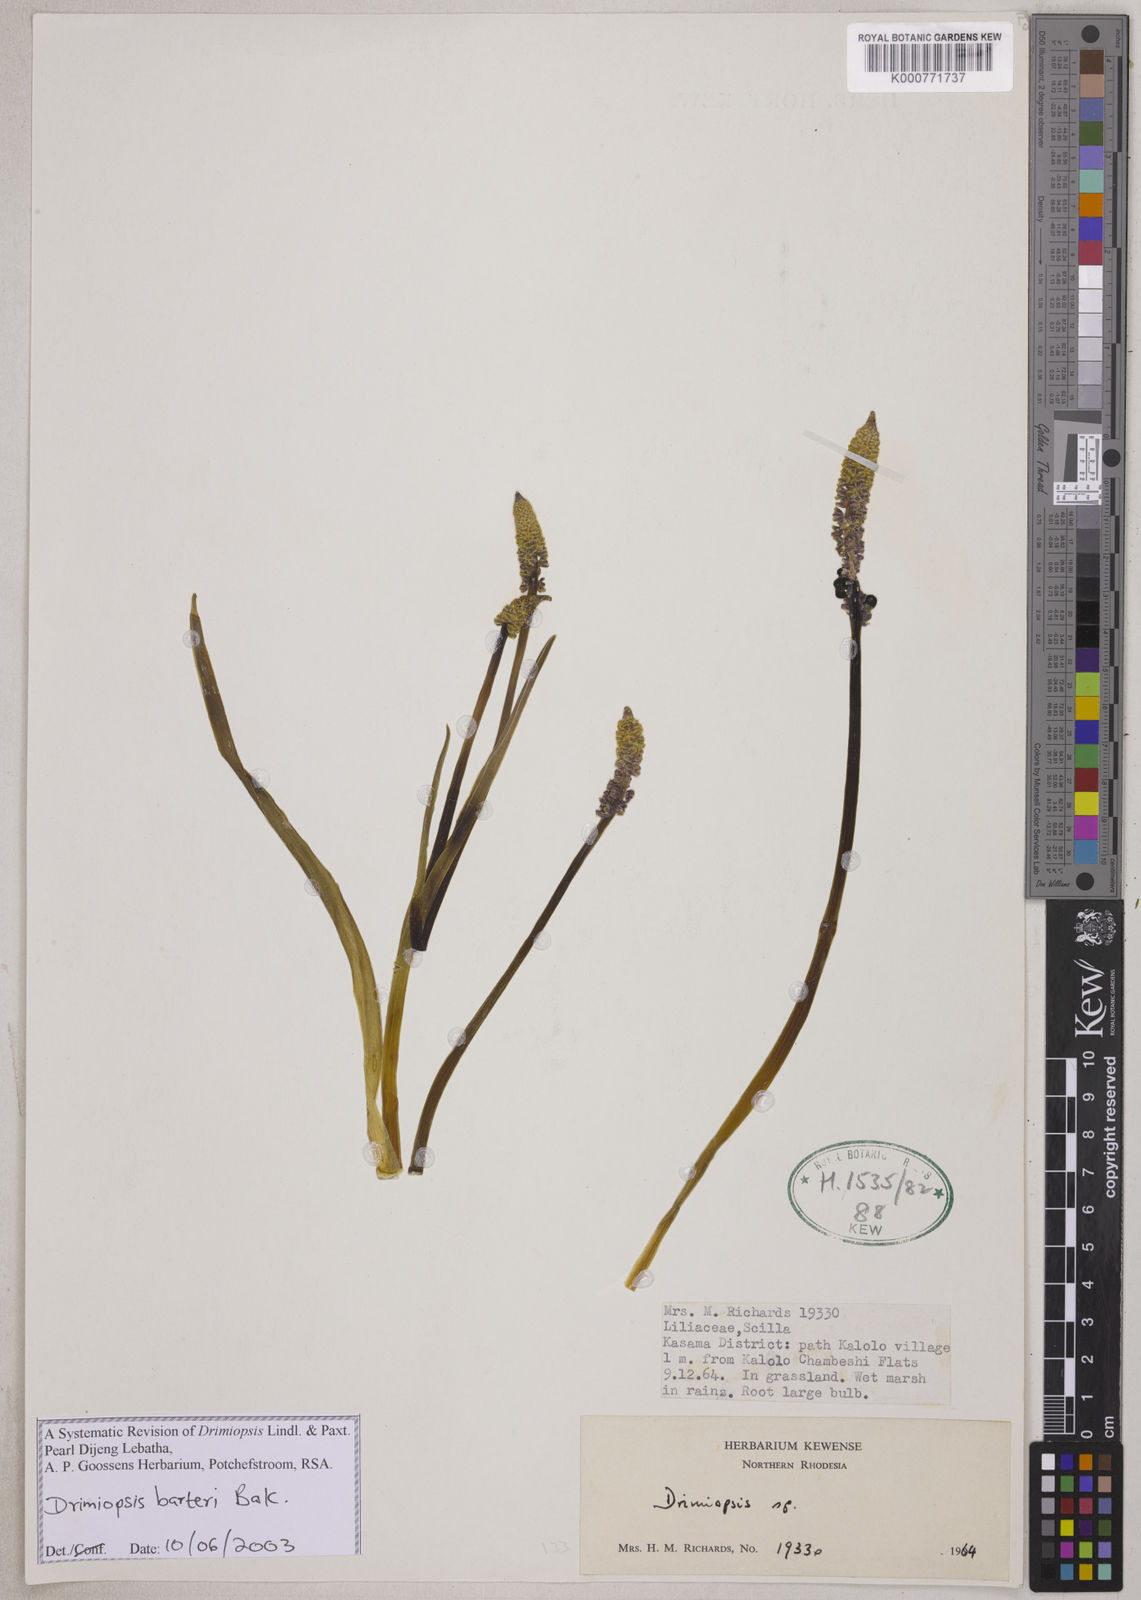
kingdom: Plantae
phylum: Tracheophyta
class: Liliopsida
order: Asparagales
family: Asparagaceae
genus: Drimiopsis
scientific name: Drimiopsis maculata
